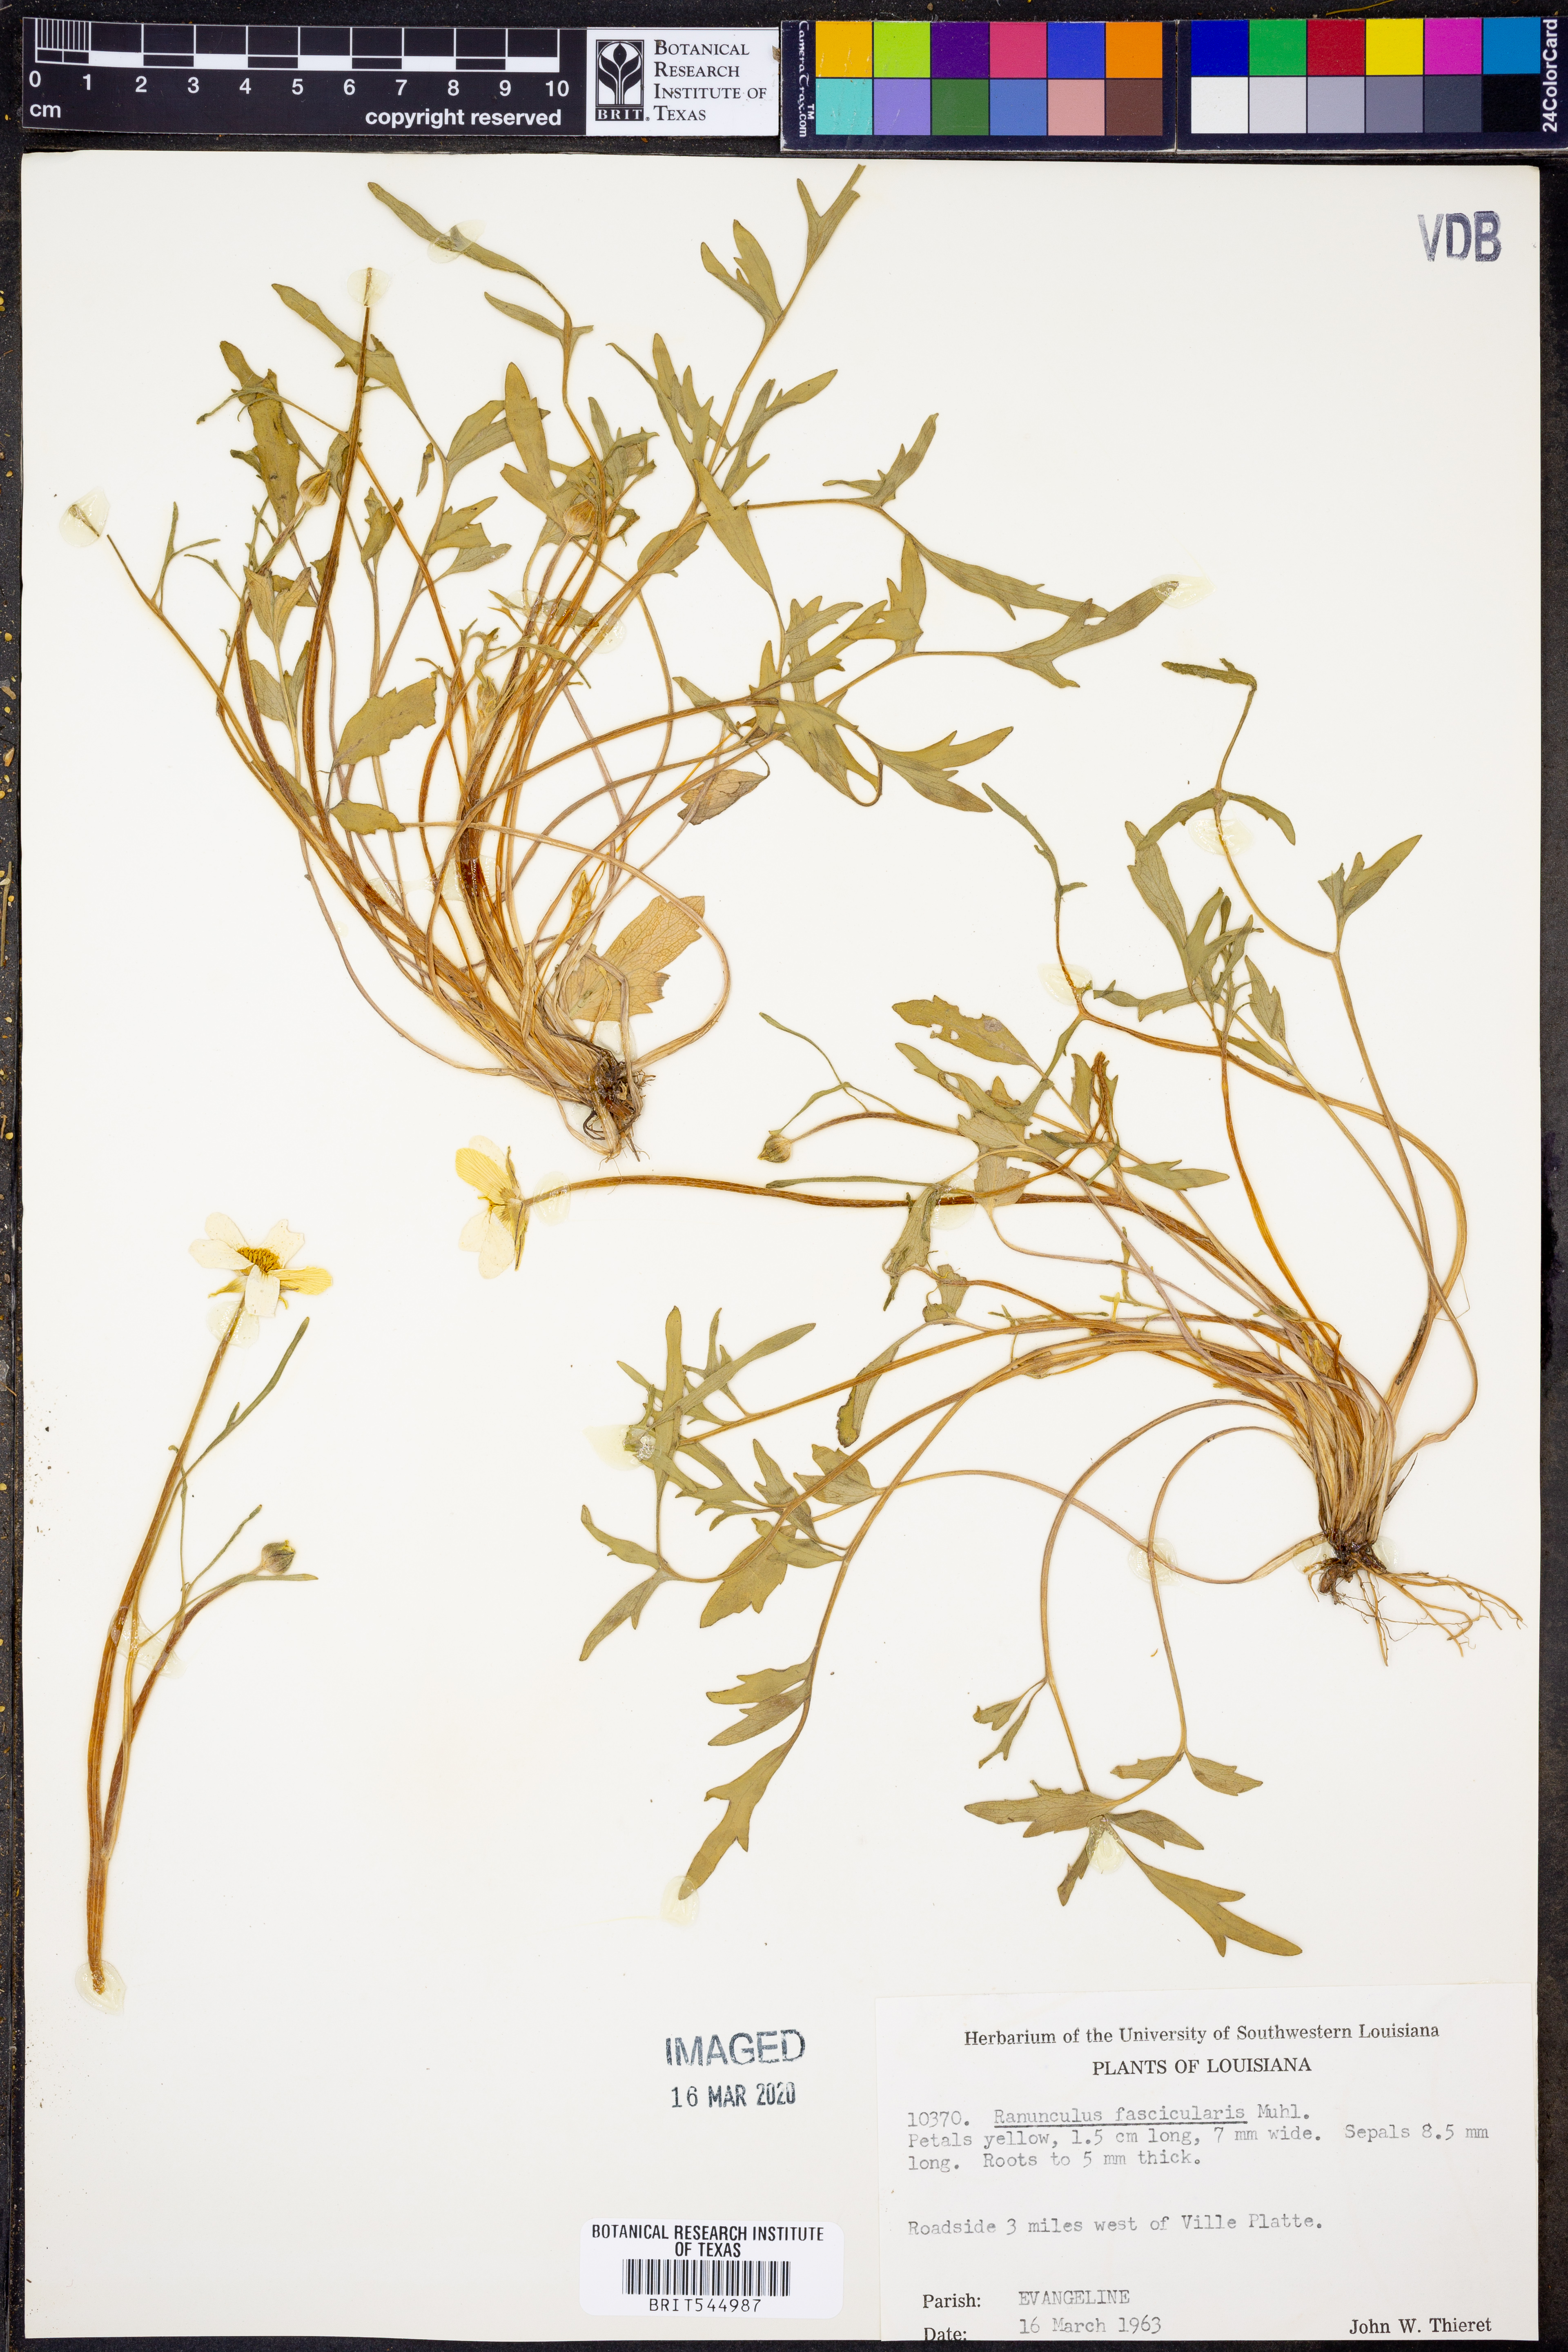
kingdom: Plantae
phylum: Tracheophyta
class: Magnoliopsida
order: Ranunculales
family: Ranunculaceae
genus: Ranunculus
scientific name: Ranunculus fascicularis
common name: Early buttercup
